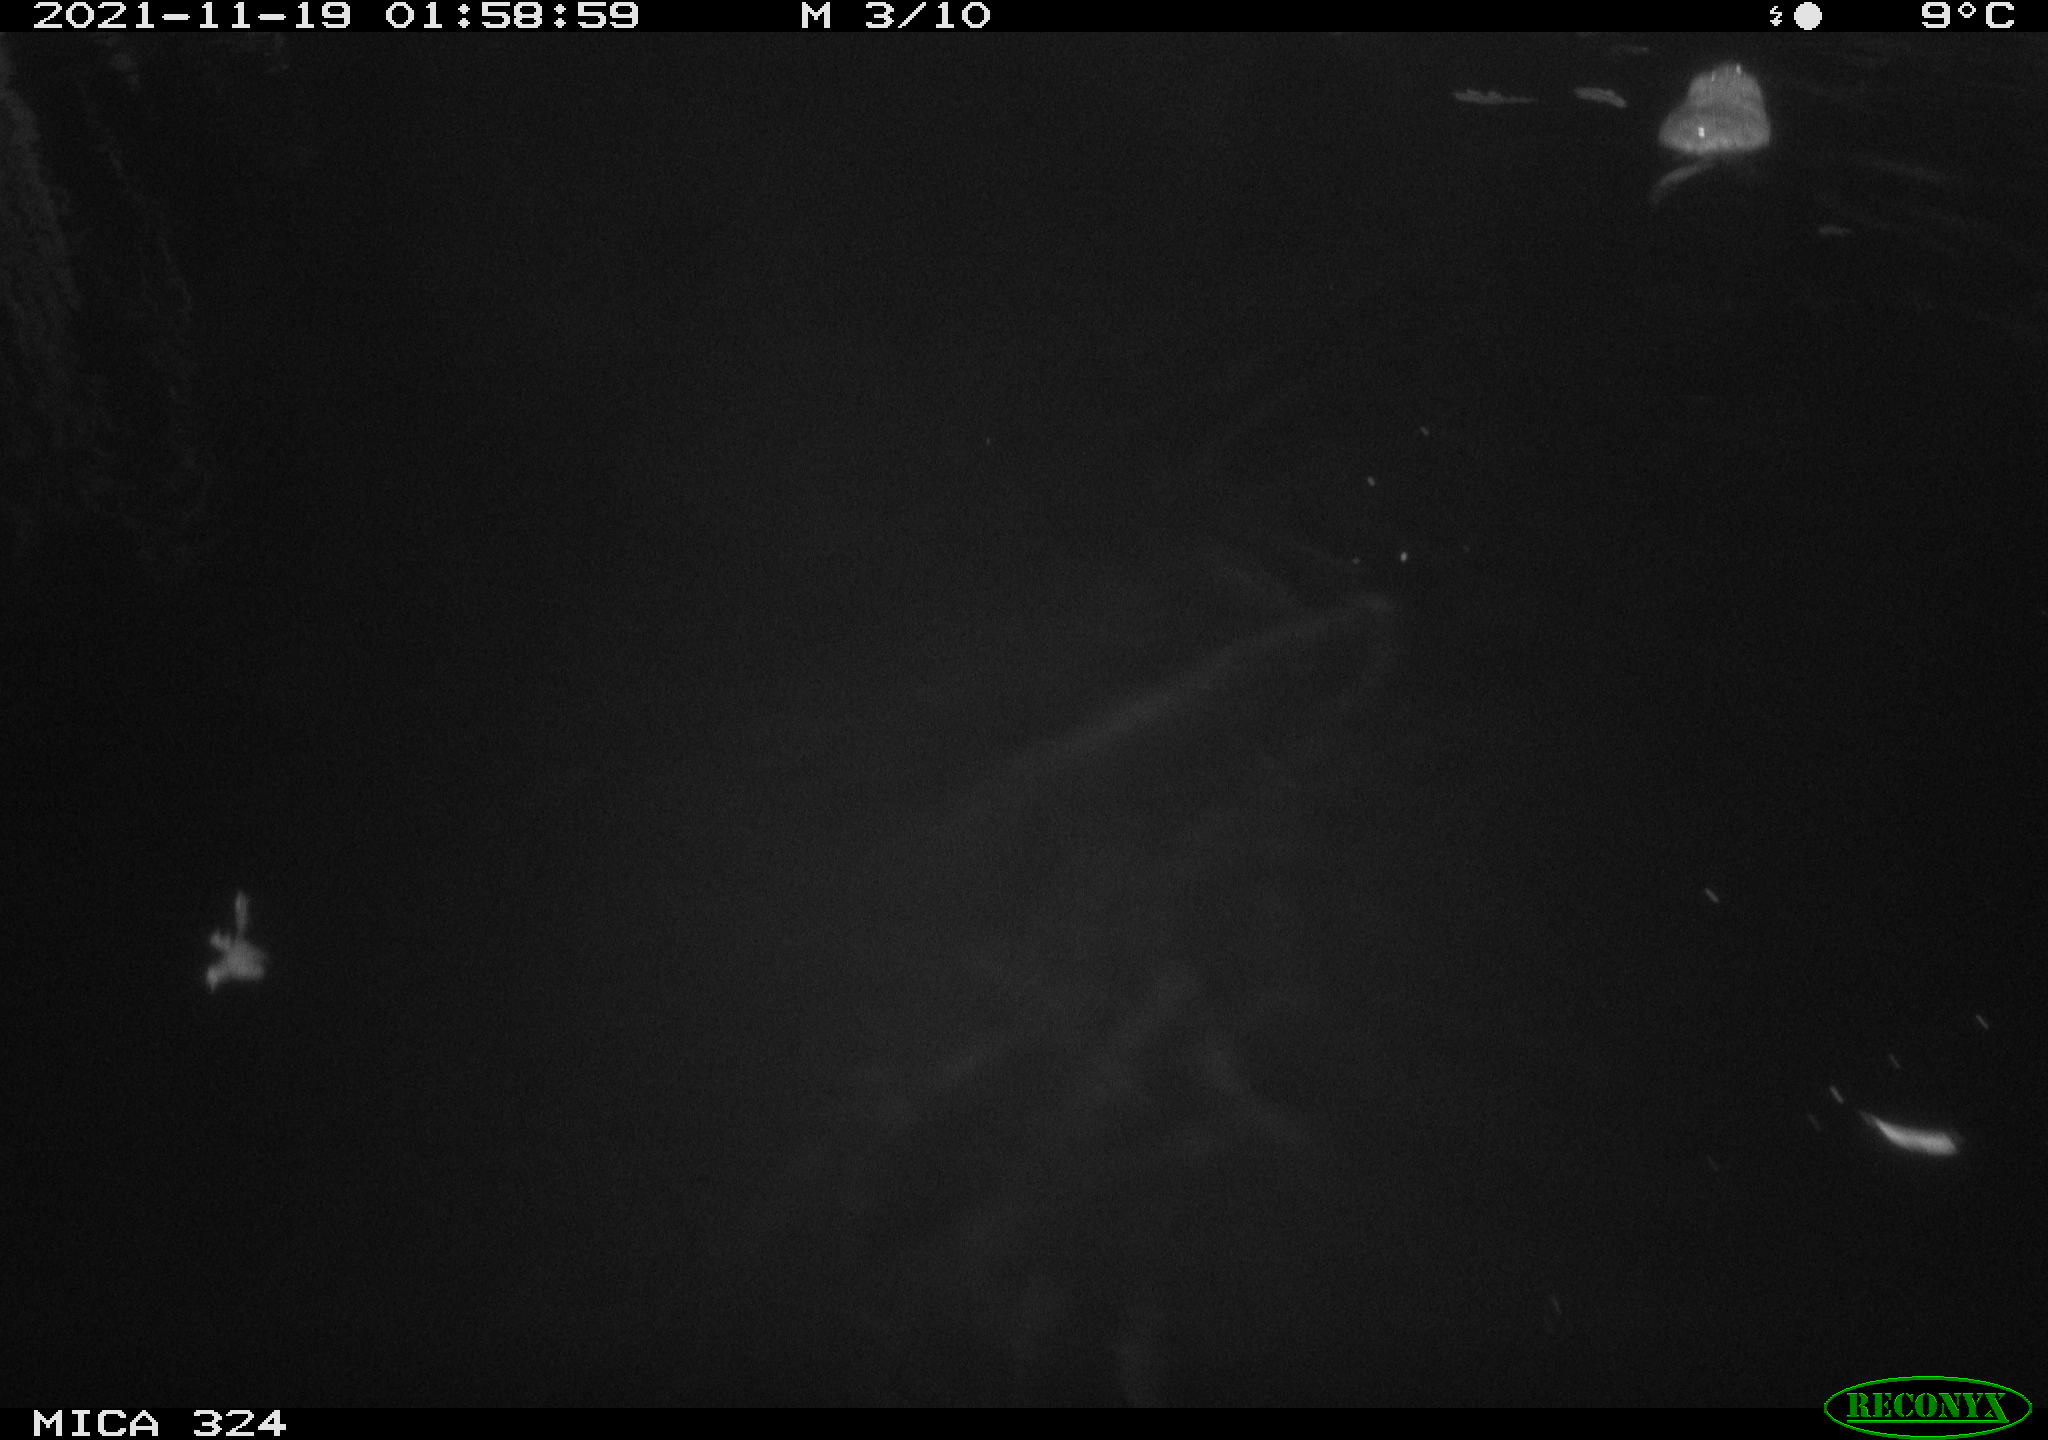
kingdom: Animalia
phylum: Chordata
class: Mammalia
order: Rodentia
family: Cricetidae
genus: Ondatra
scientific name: Ondatra zibethicus
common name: Muskrat
